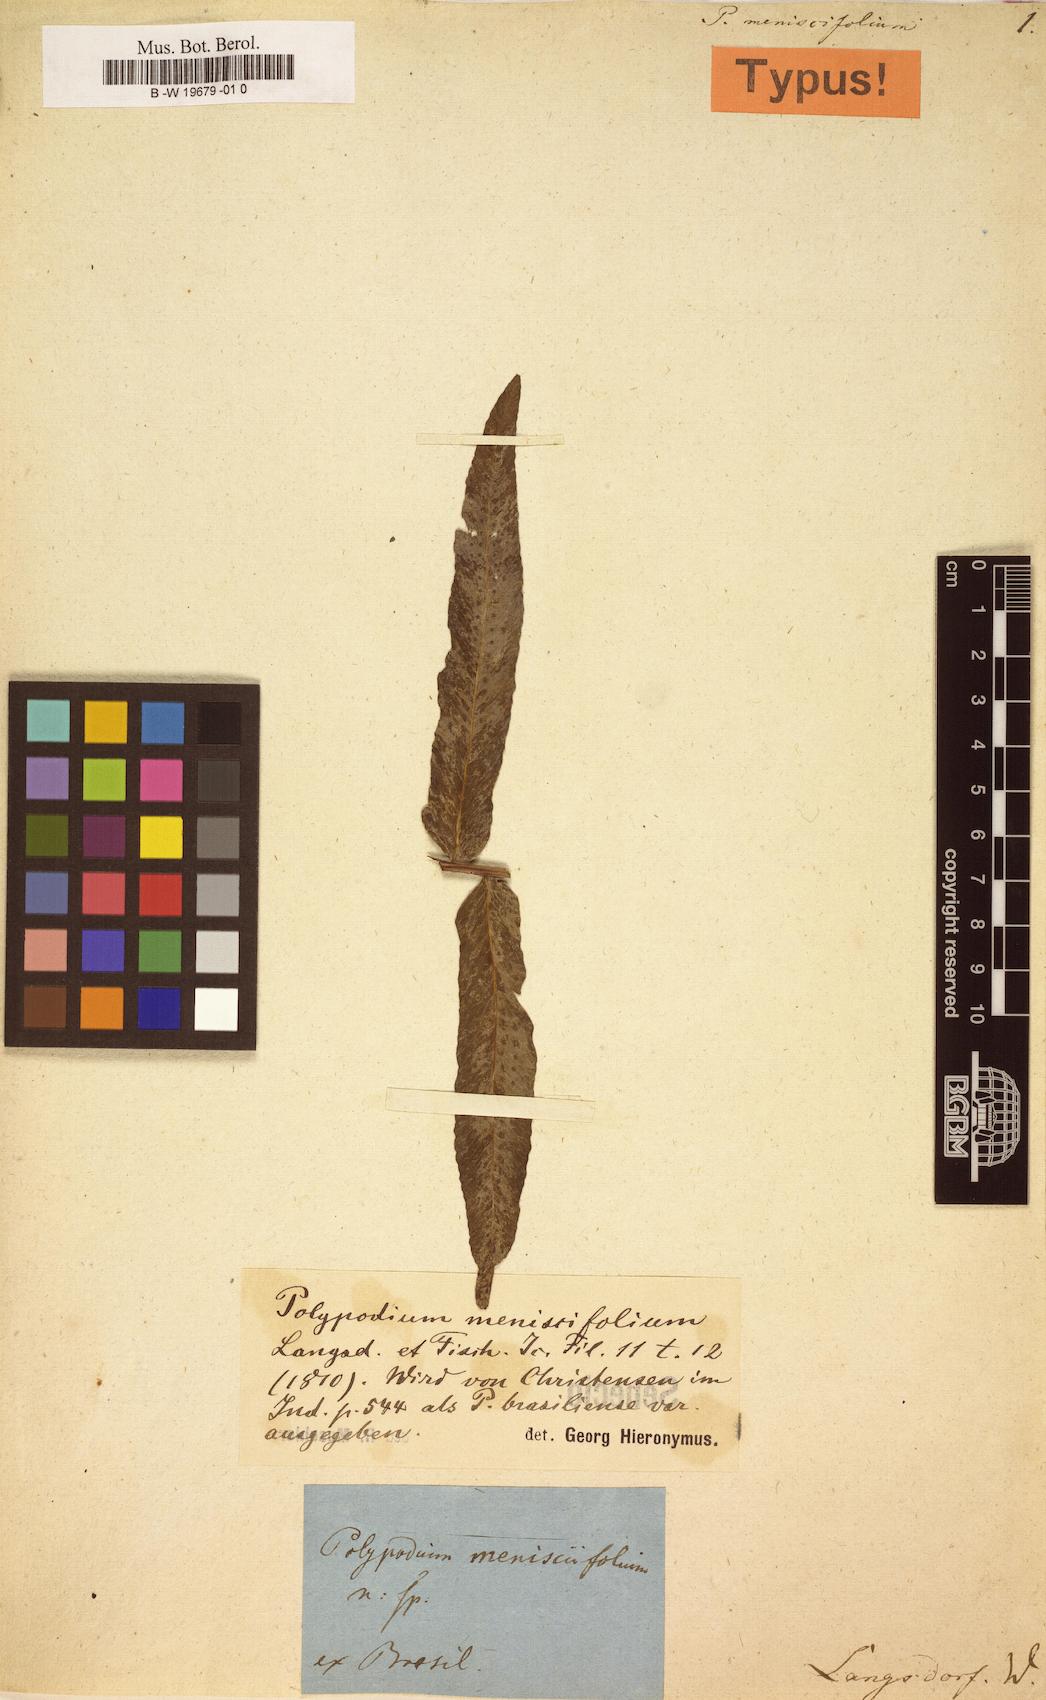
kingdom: Plantae
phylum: Tracheophyta
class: Polypodiopsida
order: Polypodiales
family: Polypodiaceae
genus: Serpocaulon
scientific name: Serpocaulon menisciifolium
